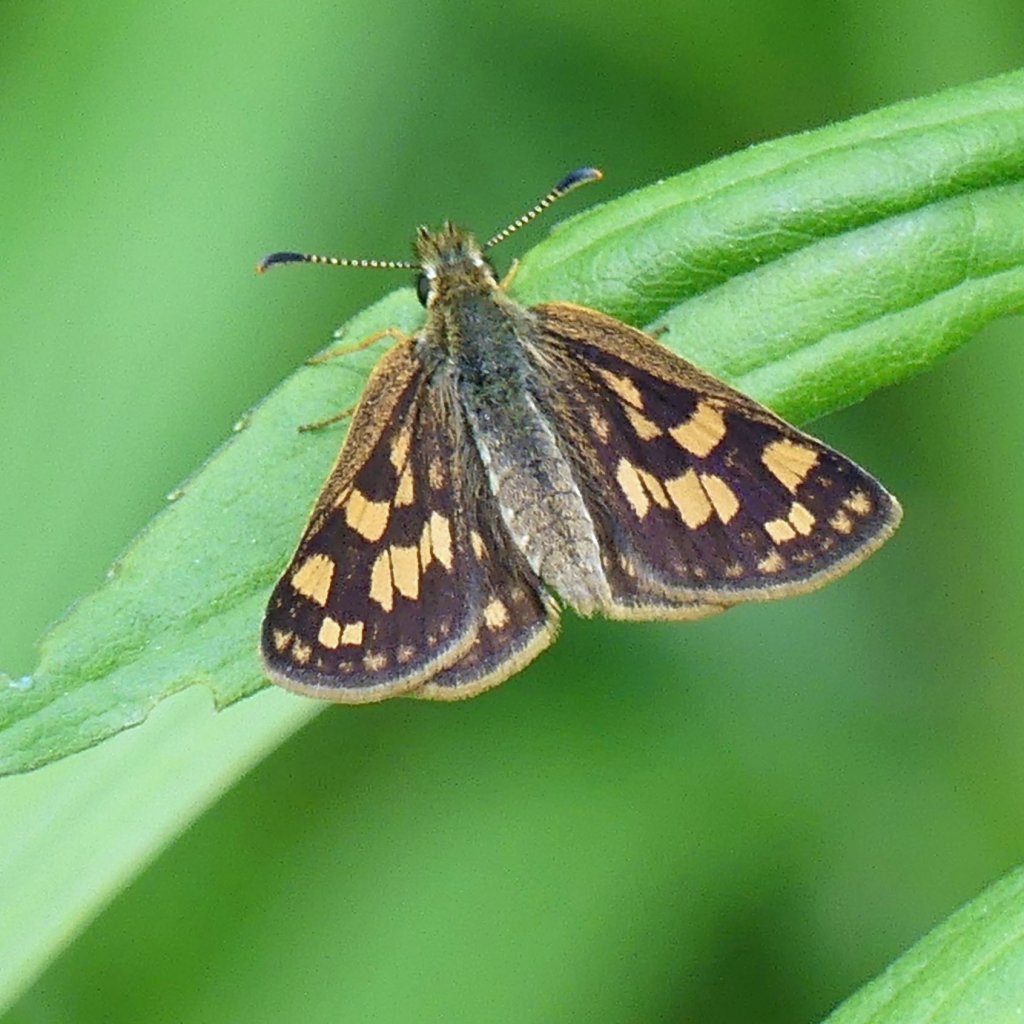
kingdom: Animalia
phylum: Arthropoda
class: Insecta
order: Lepidoptera
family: Hesperiidae
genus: Carterocephalus
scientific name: Carterocephalus palaemon
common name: Chequered Skipper
